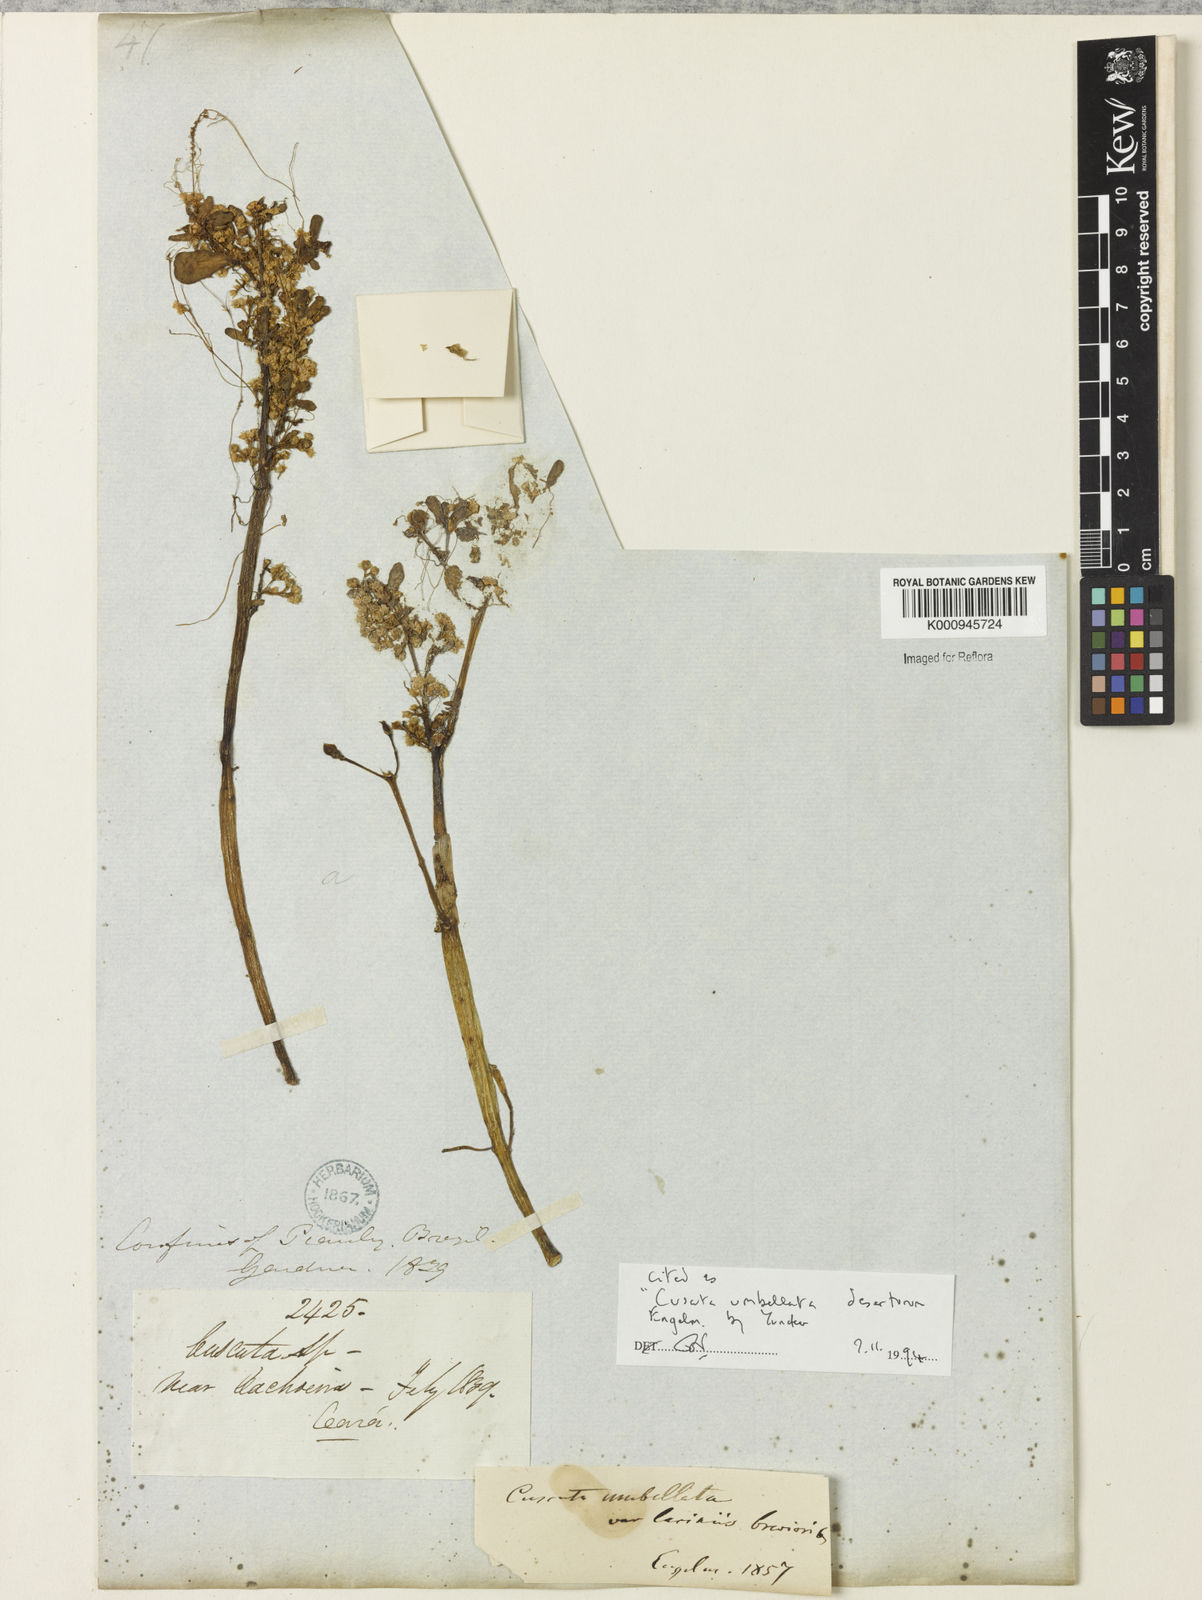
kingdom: Plantae
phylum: Tracheophyta
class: Magnoliopsida
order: Solanales
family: Convolvulaceae
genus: Cuscuta
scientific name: Cuscuta umbellata
